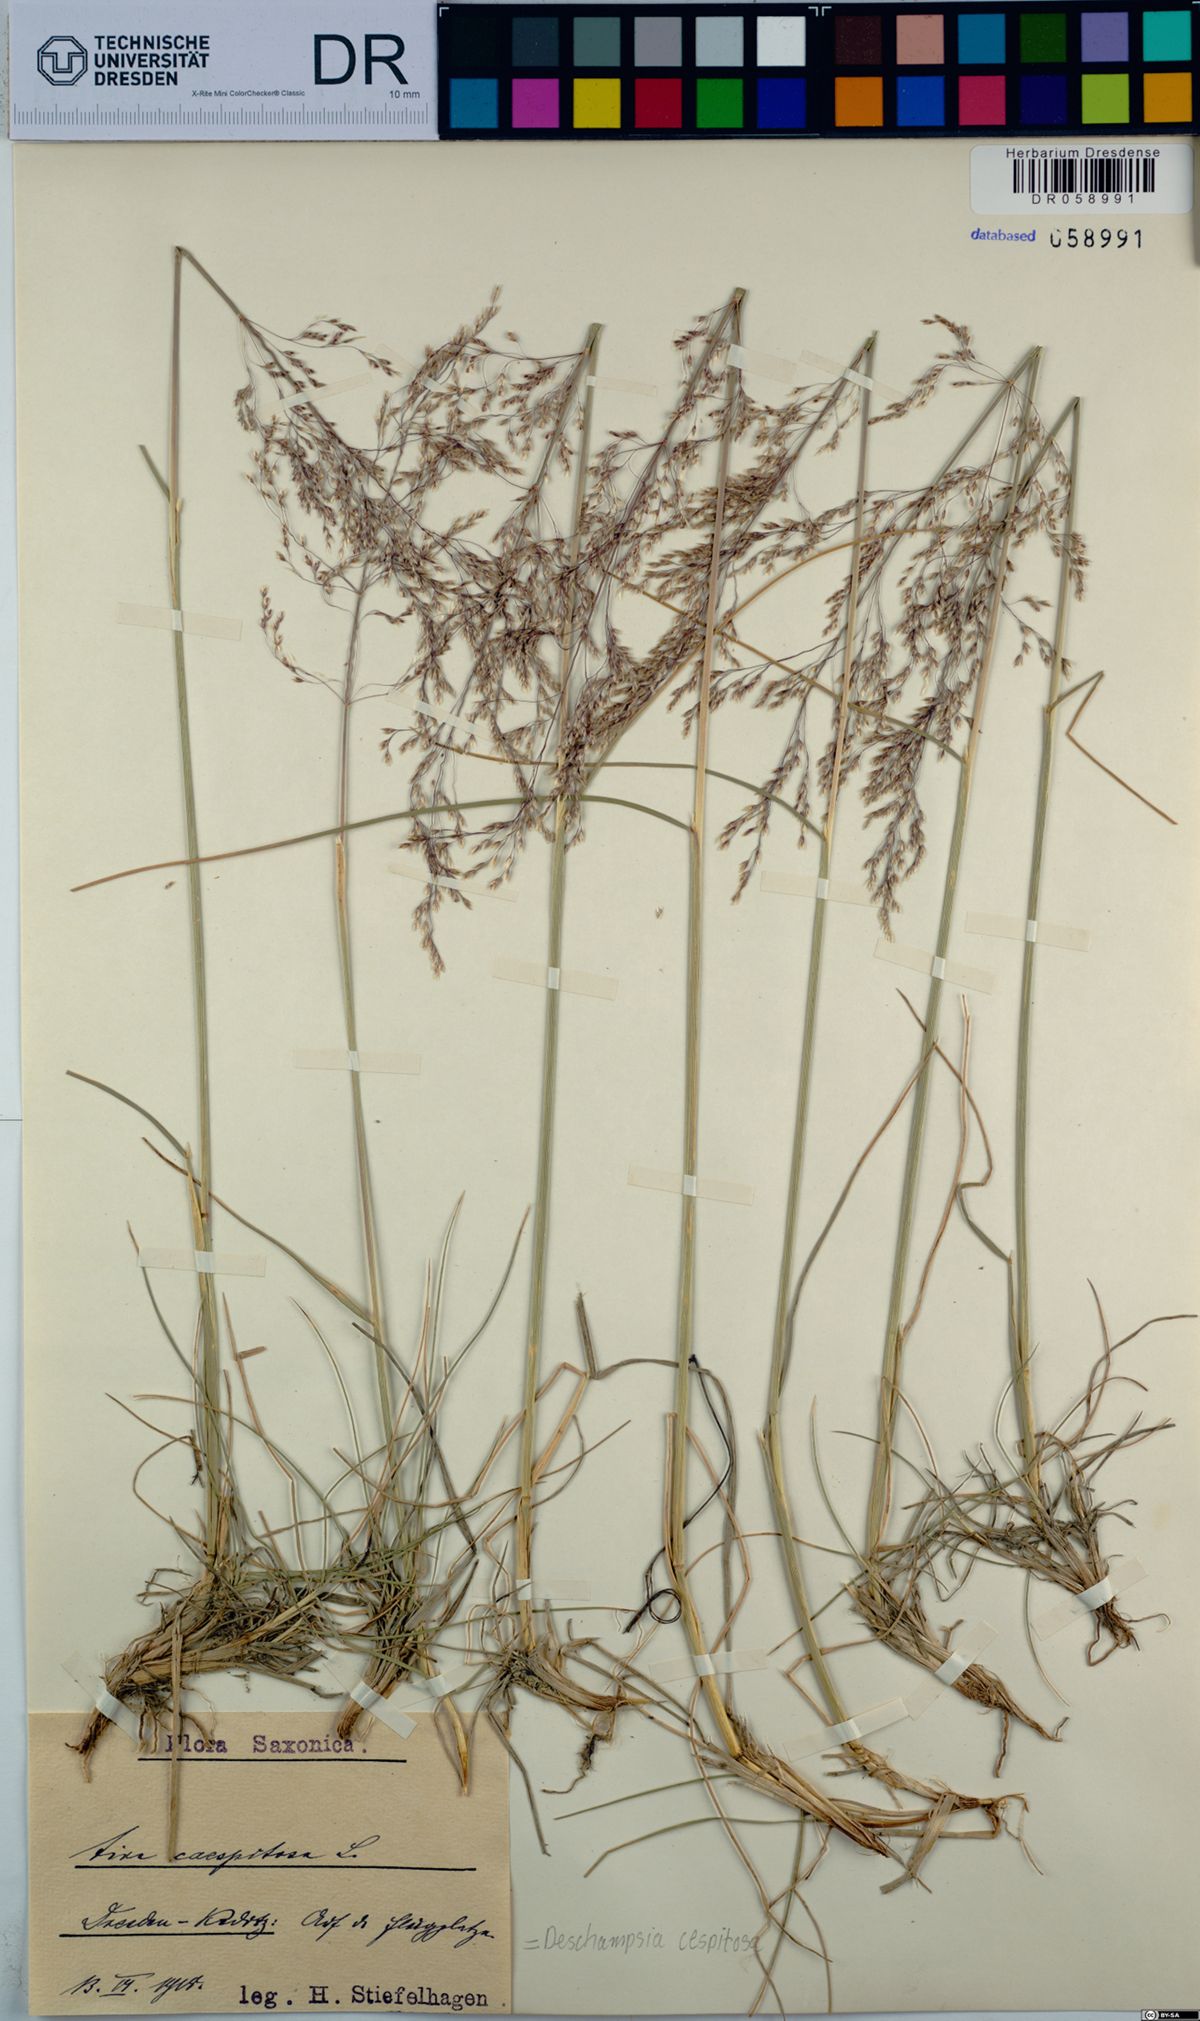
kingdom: Plantae
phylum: Tracheophyta
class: Liliopsida
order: Poales
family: Poaceae
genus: Deschampsia
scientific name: Deschampsia cespitosa
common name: Tufted hair-grass
